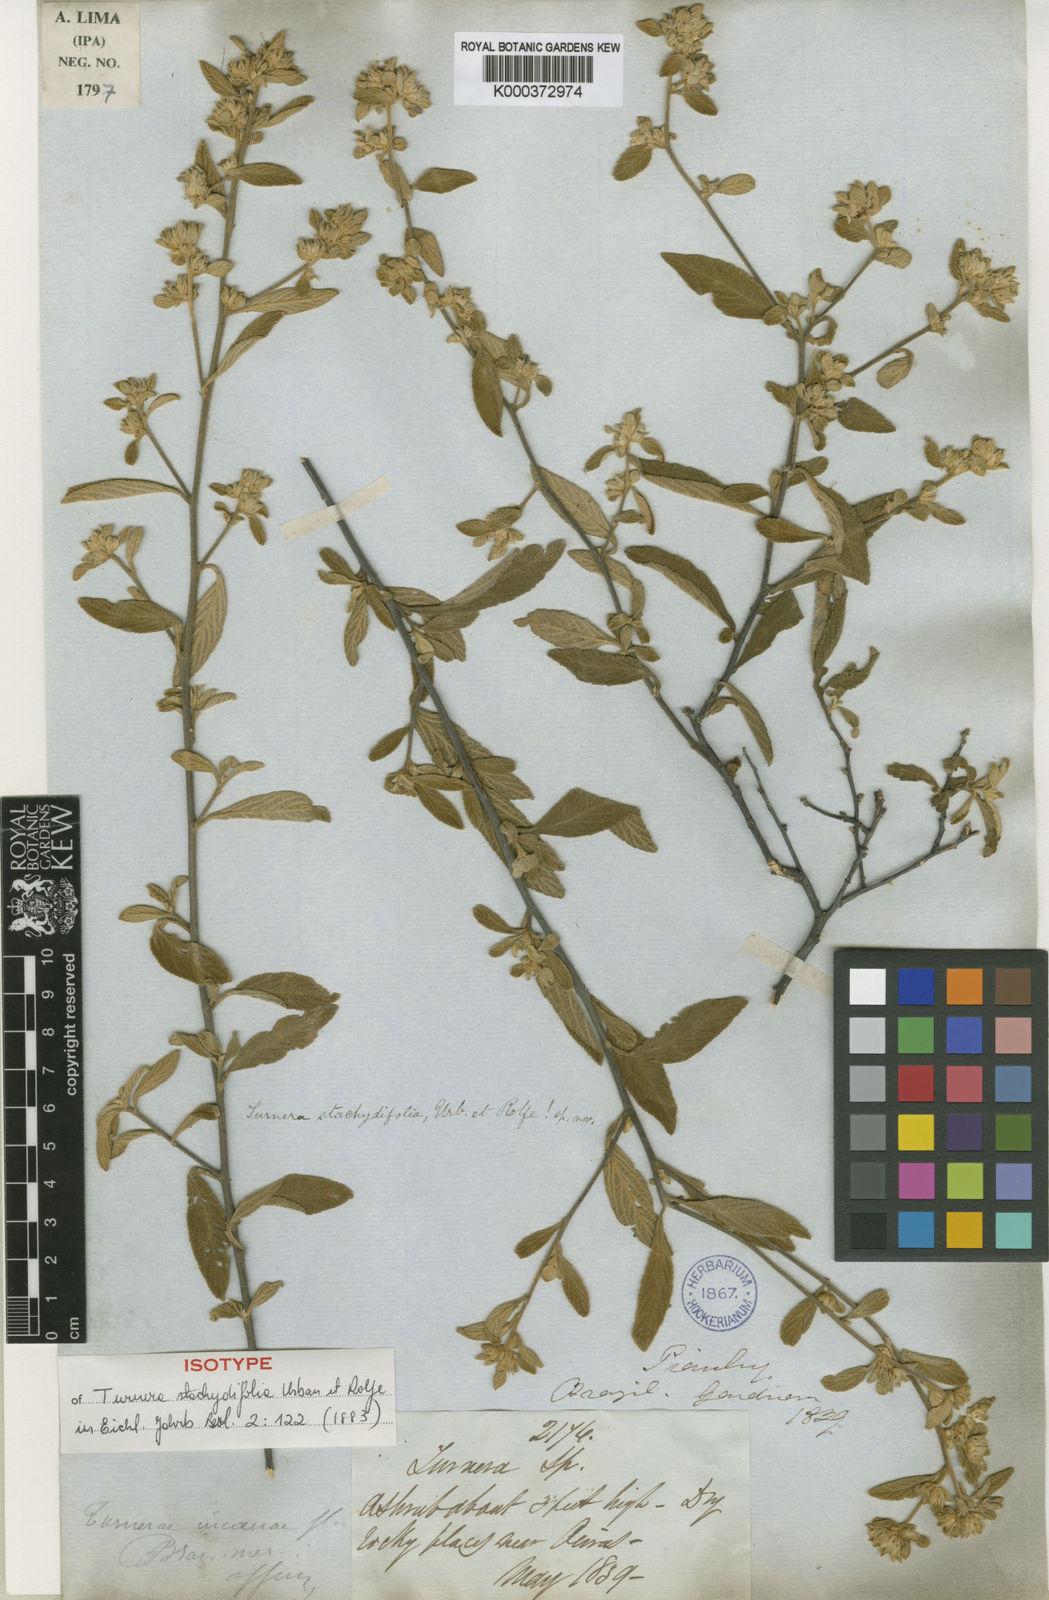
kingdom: Plantae
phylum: Tracheophyta
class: Magnoliopsida
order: Malpighiales
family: Turneraceae
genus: Turnera
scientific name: Turnera stachydifolia
